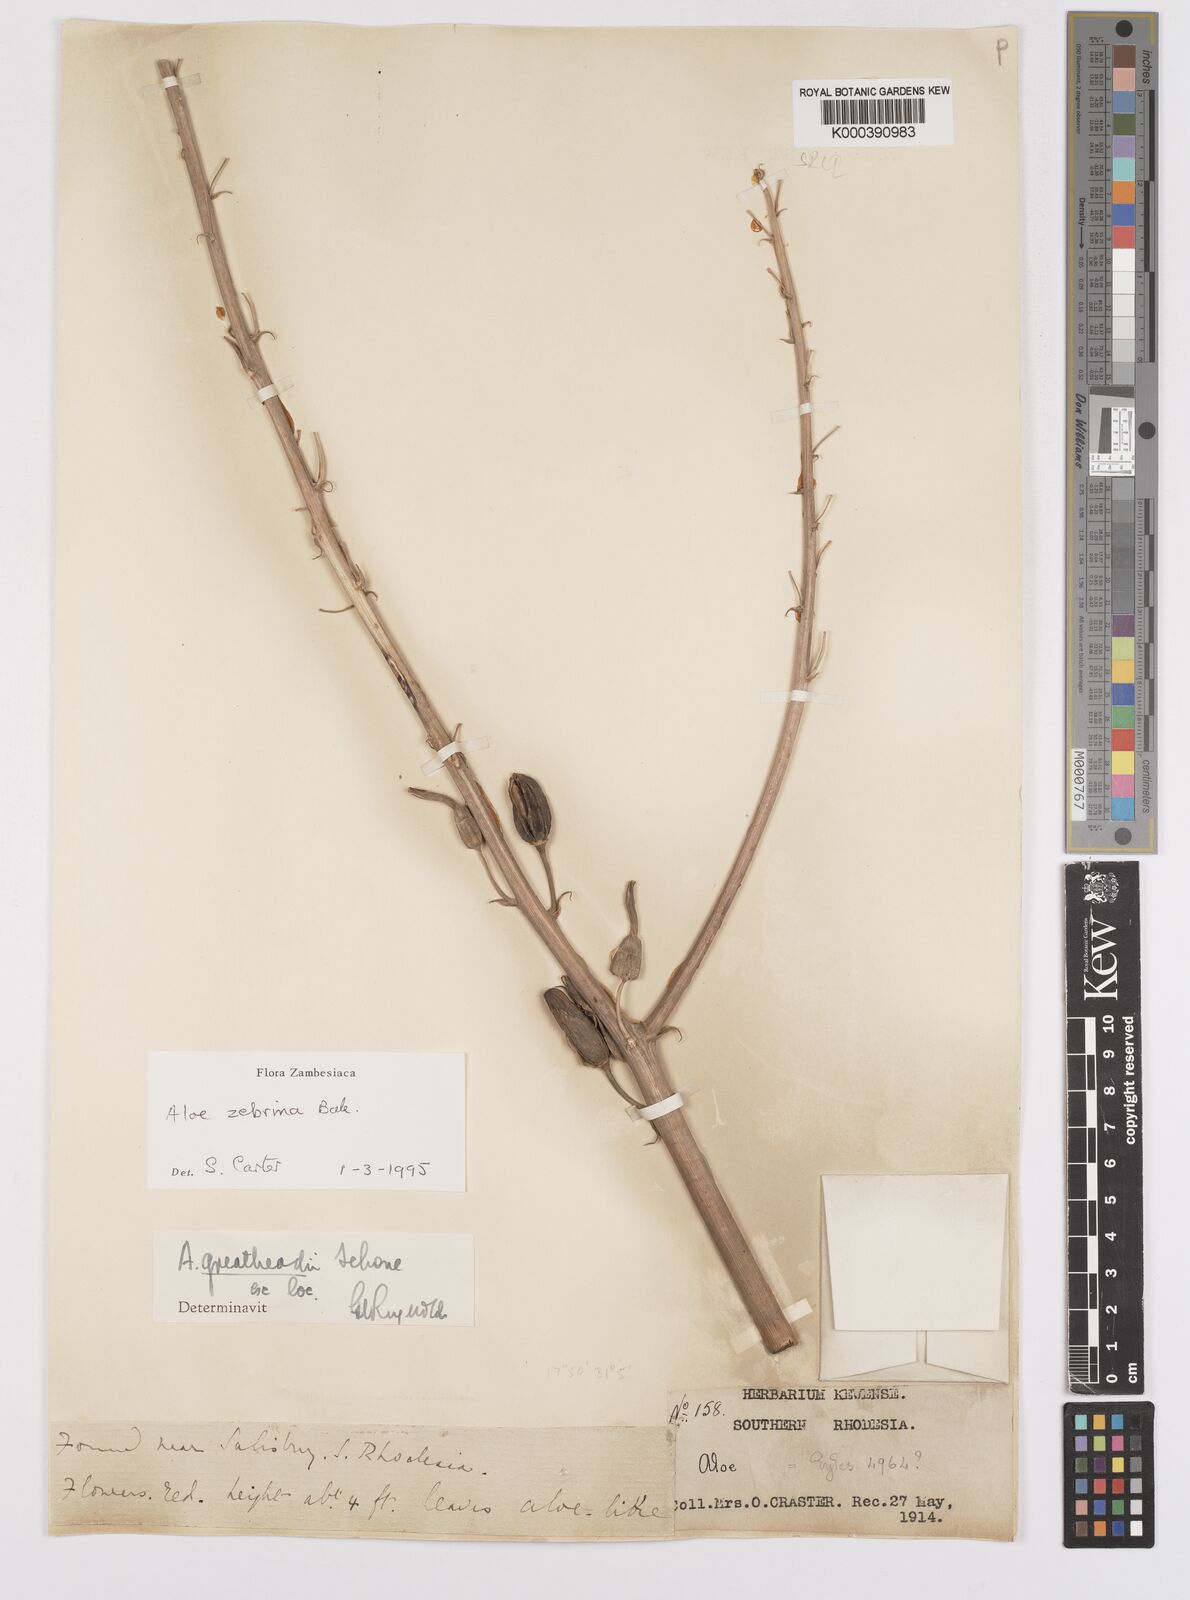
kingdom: Plantae
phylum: Tracheophyta
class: Liliopsida
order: Asparagales
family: Asphodelaceae
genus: Aloe
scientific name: Aloe zebrina
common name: Zebra-leaf aloe
